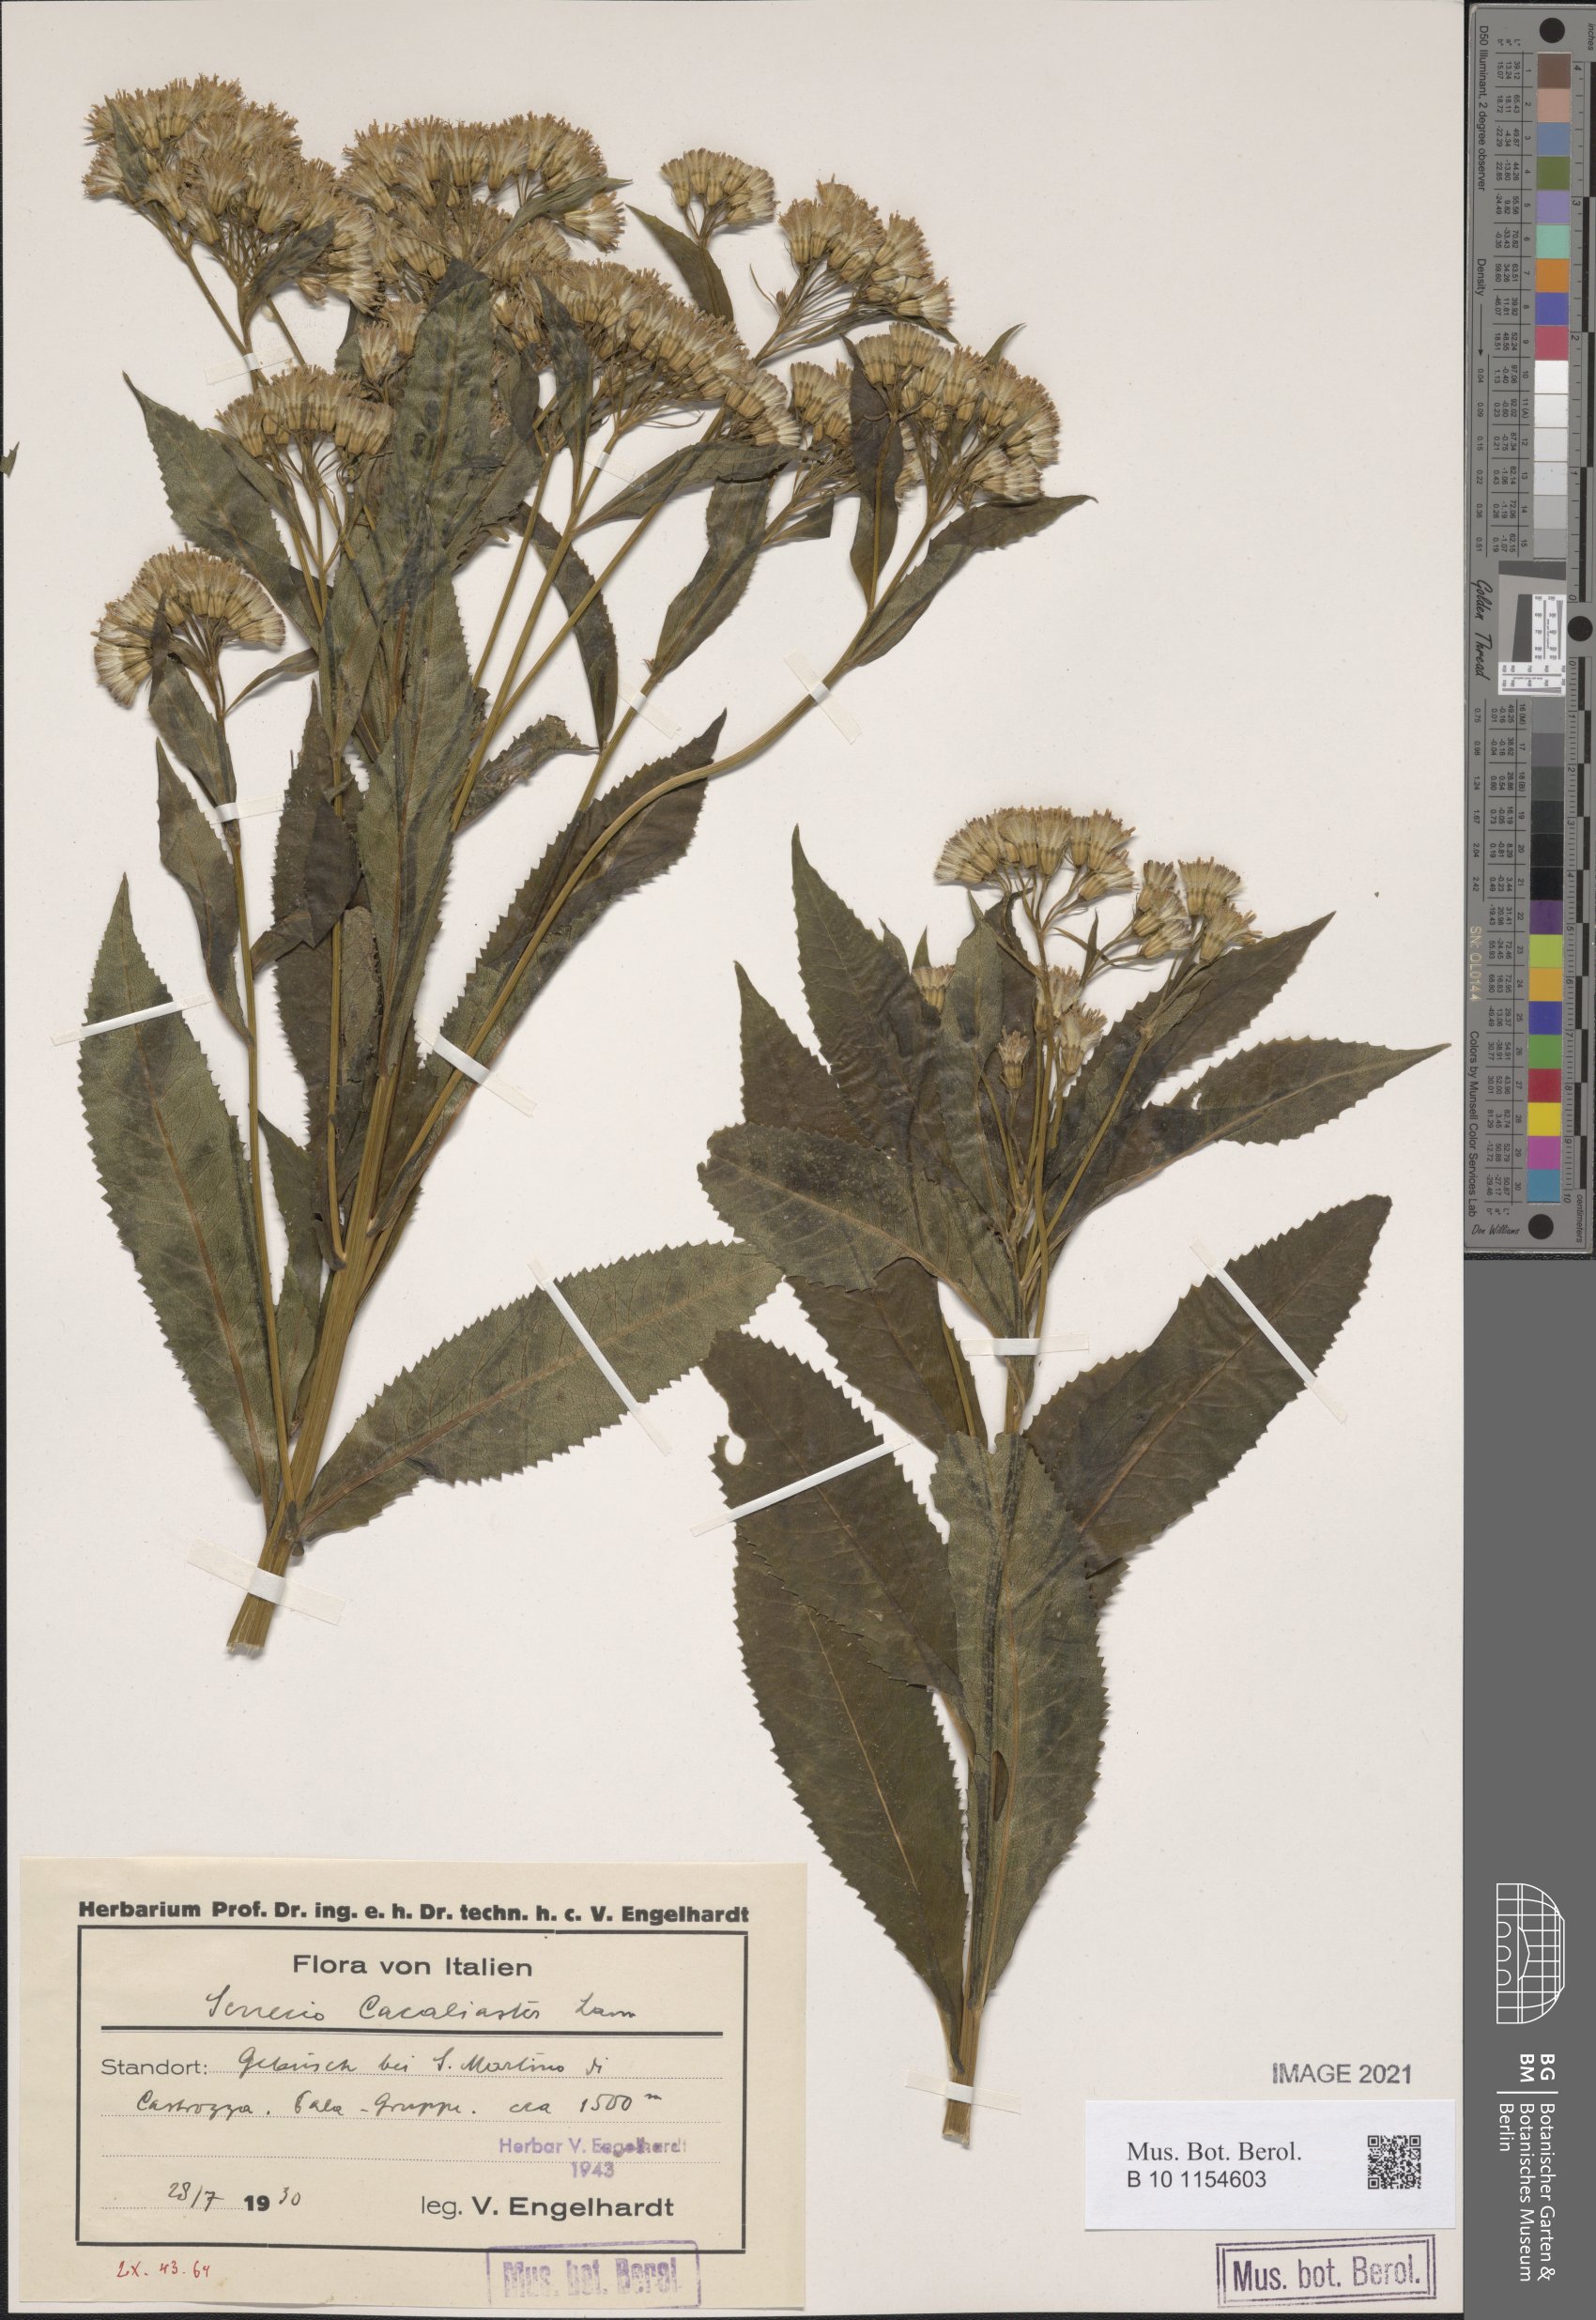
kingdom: Plantae
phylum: Tracheophyta
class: Magnoliopsida
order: Asterales
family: Asteraceae
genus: Senecio
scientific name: Senecio cacaliaster
